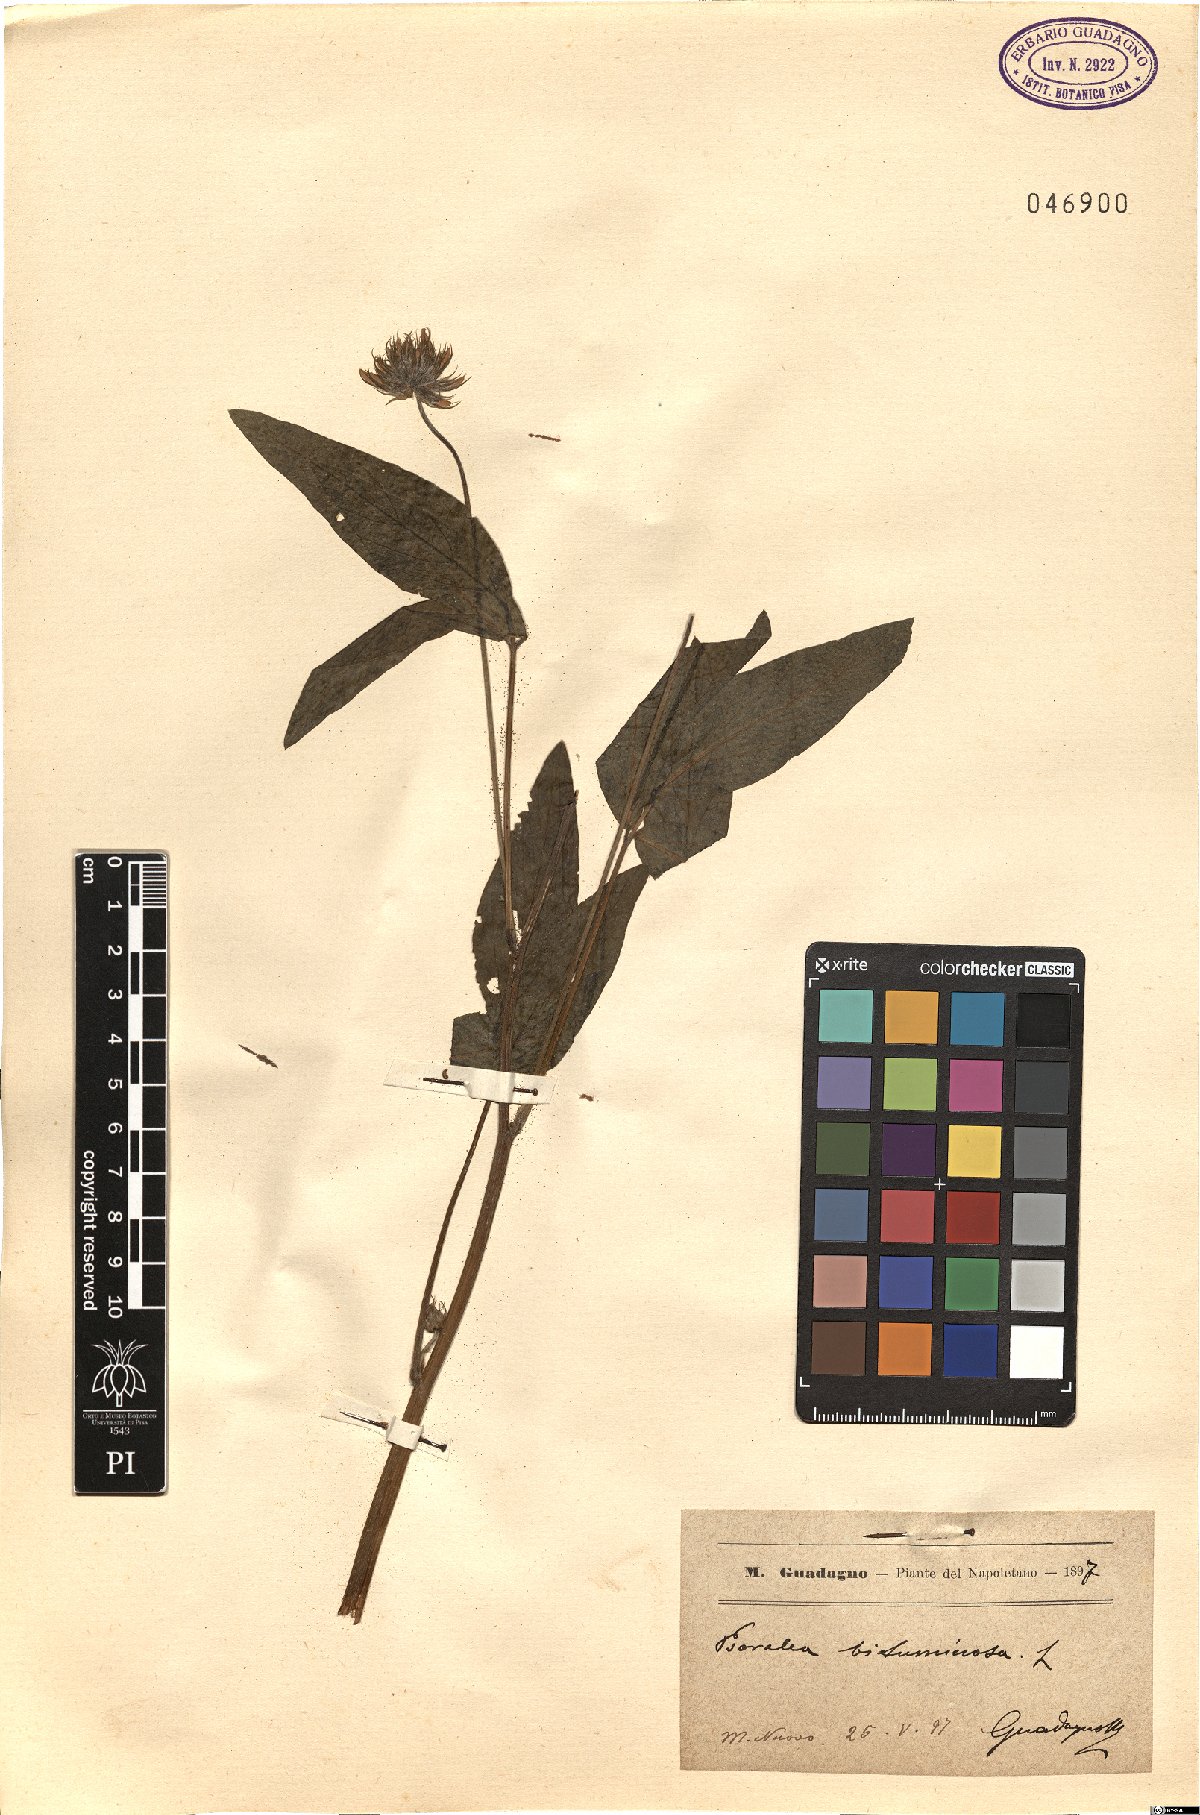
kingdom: Plantae
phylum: Tracheophyta
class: Magnoliopsida
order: Fabales
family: Fabaceae
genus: Bituminaria
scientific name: Bituminaria bituminosa
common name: Arabian pea
